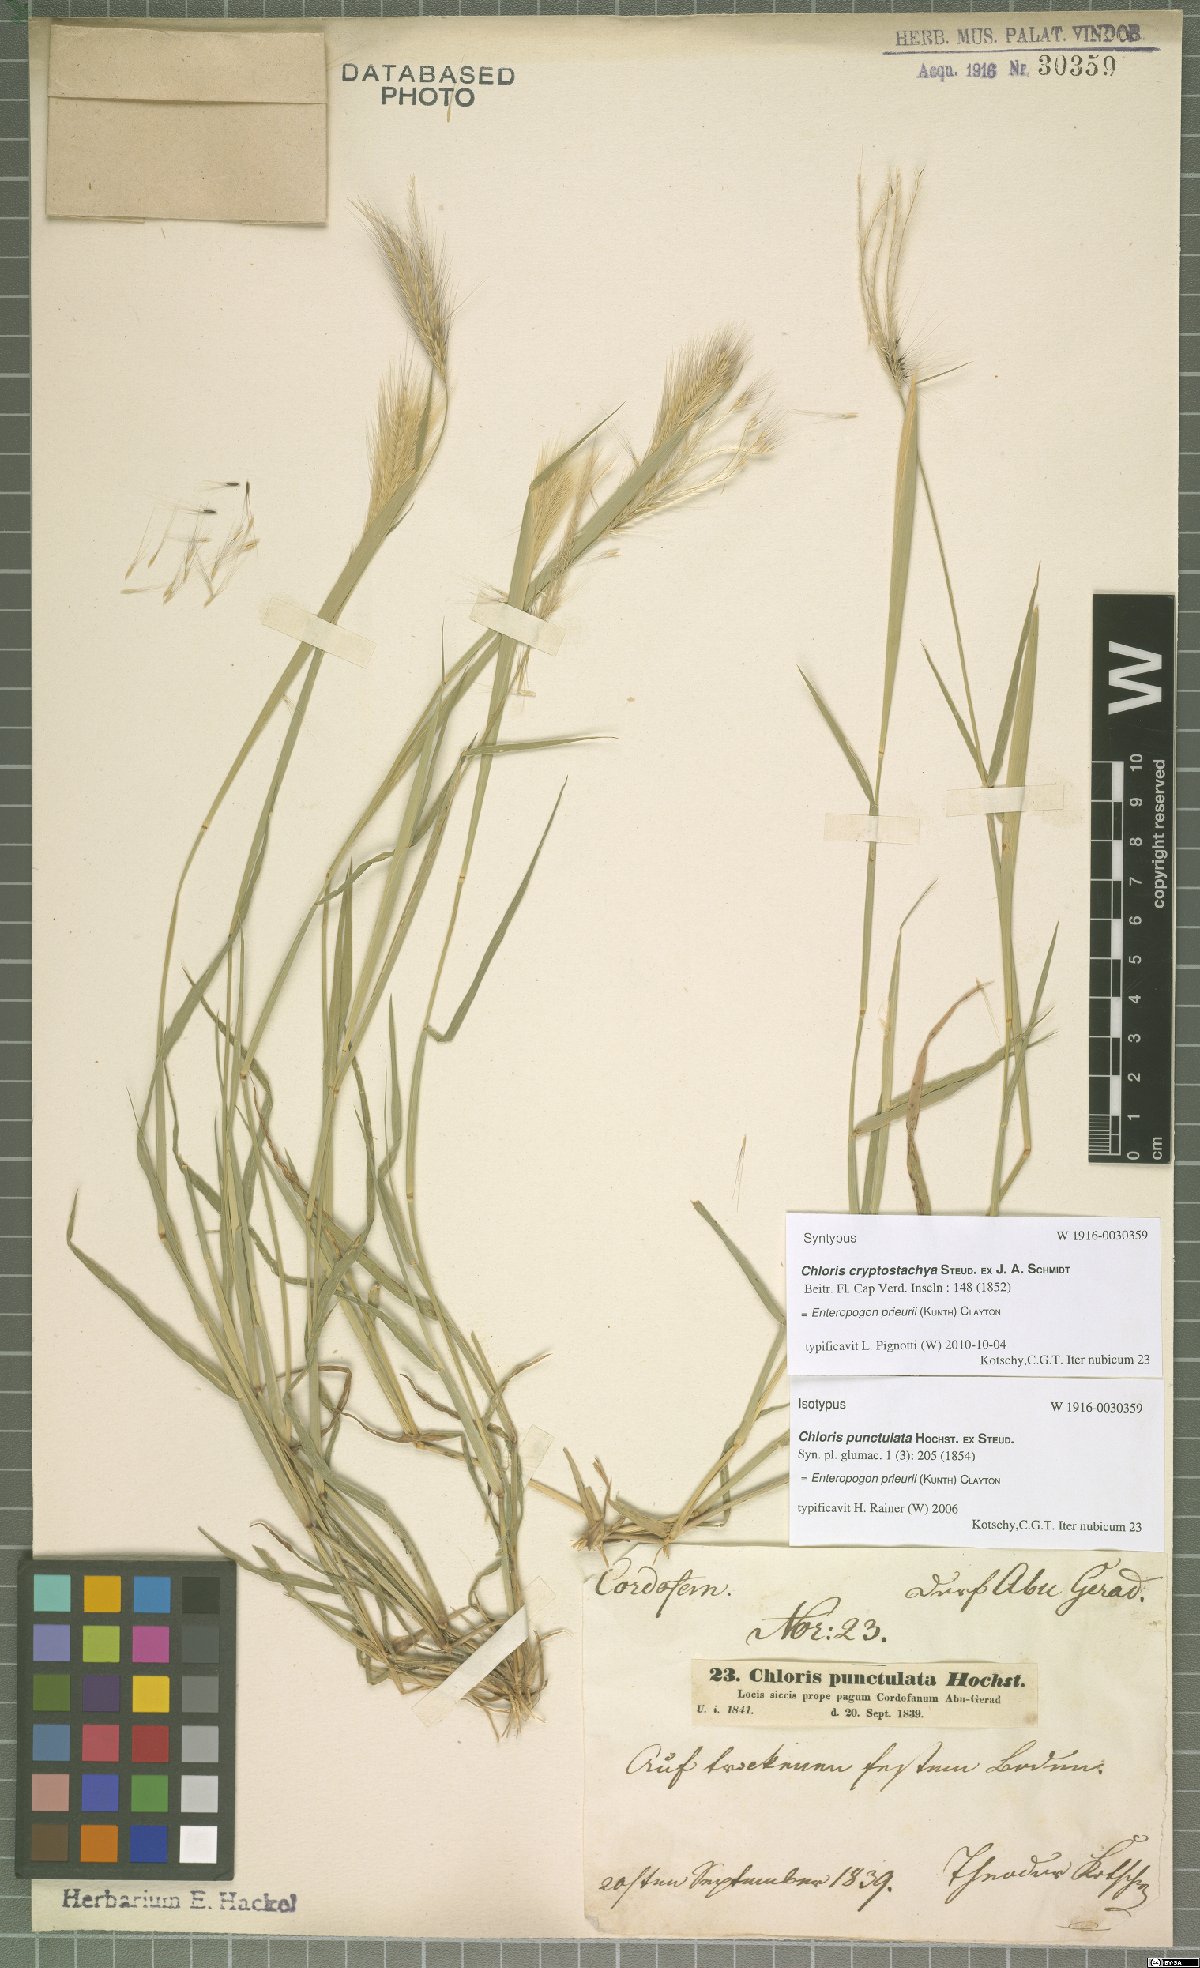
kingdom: Plantae
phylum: Tracheophyta
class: Liliopsida
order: Poales
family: Poaceae
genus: Enteropogon
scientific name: Enteropogon prieurii
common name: Prieur's umbrellagrass
